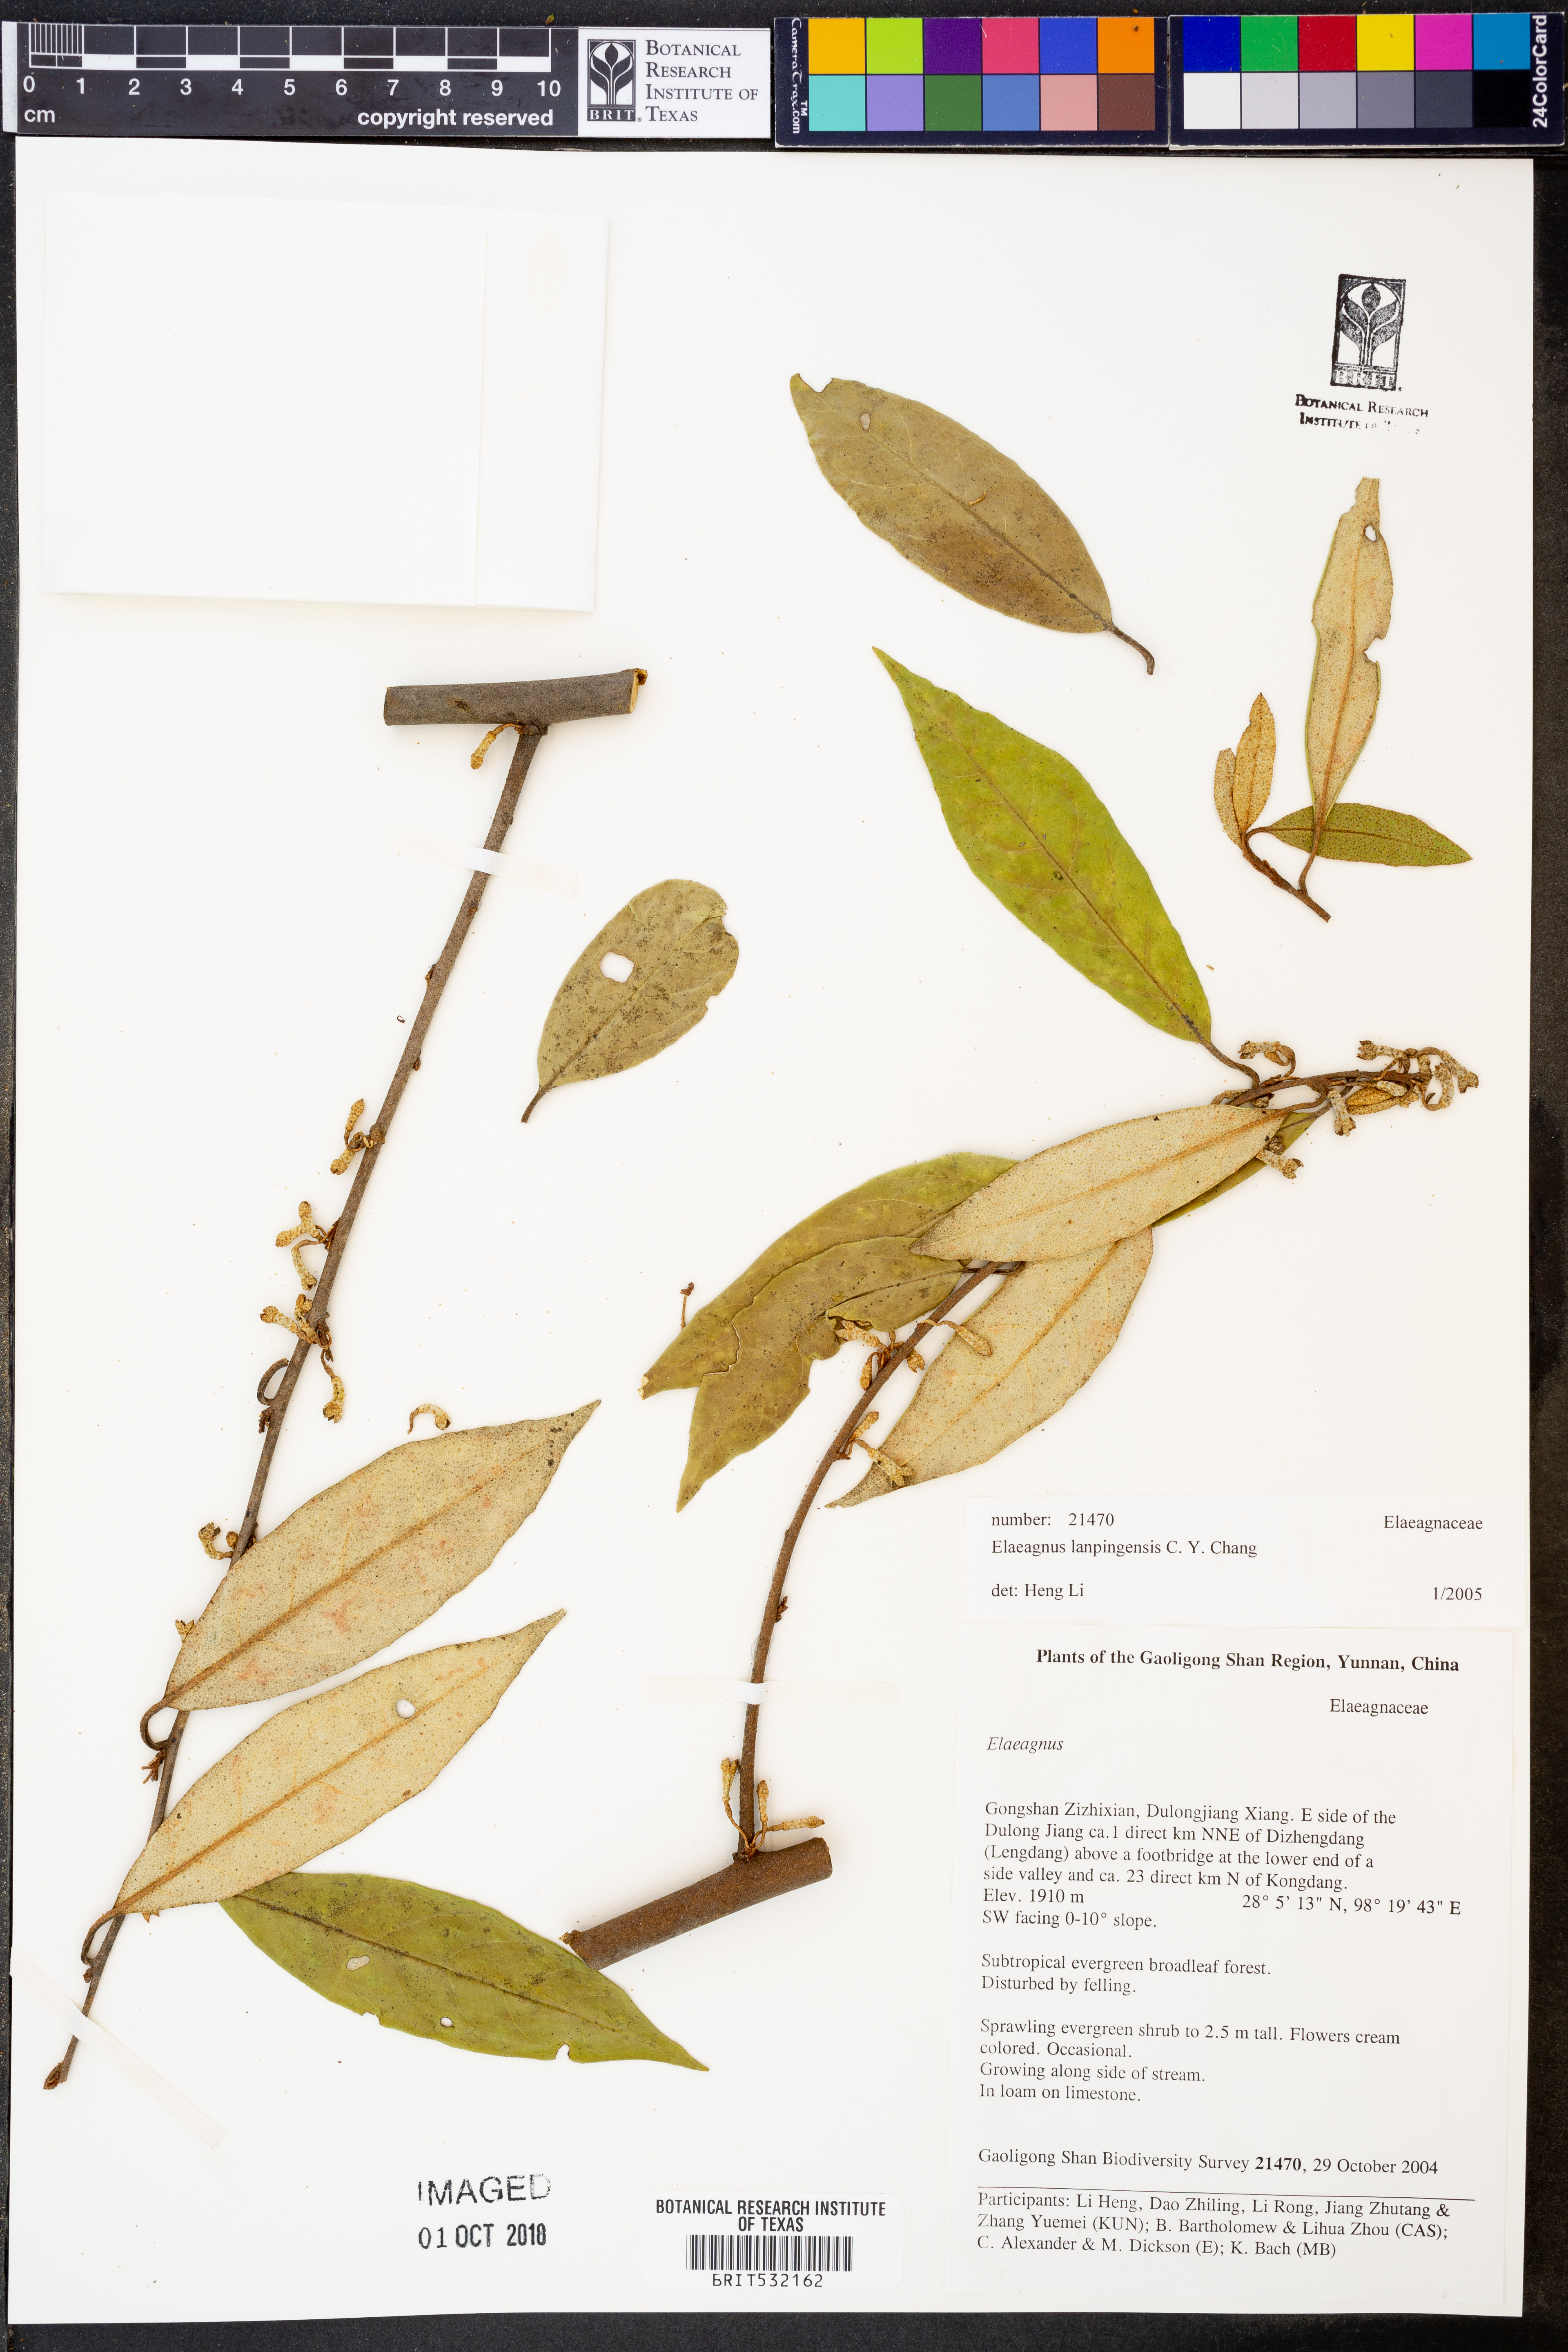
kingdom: Plantae
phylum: Tracheophyta
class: Magnoliopsida
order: Rosales
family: Elaeagnaceae
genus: Elaeagnus
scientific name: Elaeagnus lanpingensis
